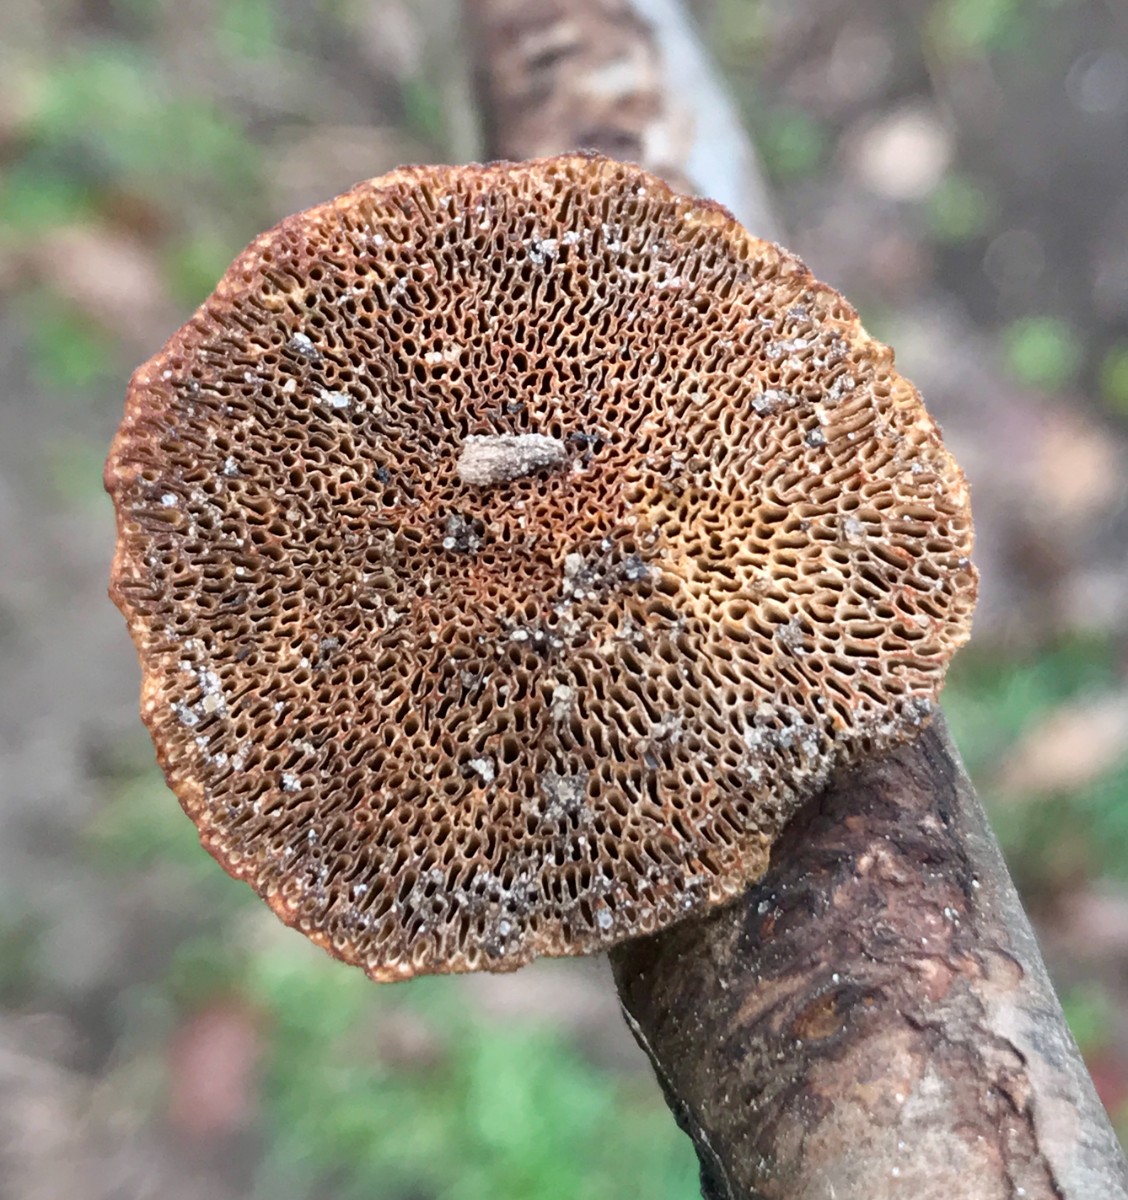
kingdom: Fungi
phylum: Basidiomycota
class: Agaricomycetes
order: Polyporales
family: Polyporaceae
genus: Daedaleopsis
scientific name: Daedaleopsis confragosa
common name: rødmende læderporesvamp
